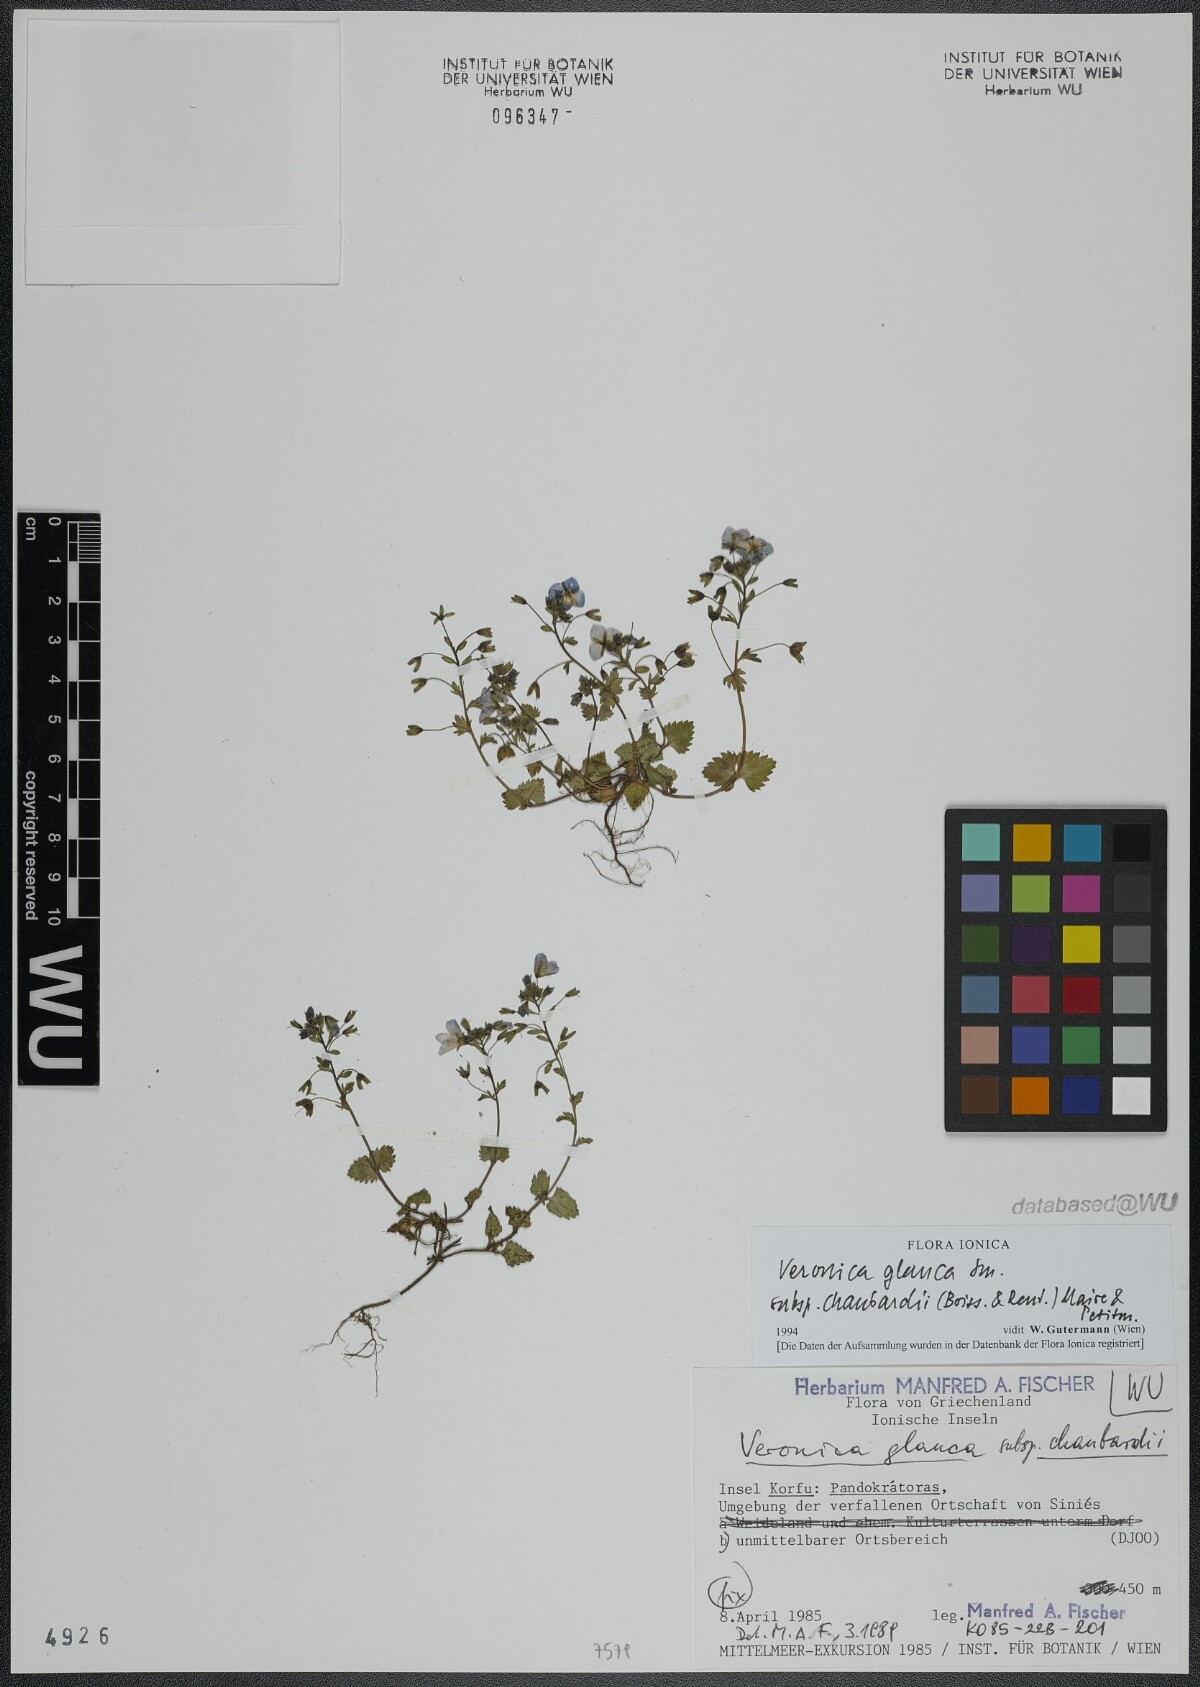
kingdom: Plantae
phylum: Tracheophyta
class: Magnoliopsida
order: Lamiales
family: Plantaginaceae
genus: Veronica
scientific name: Veronica glauca
